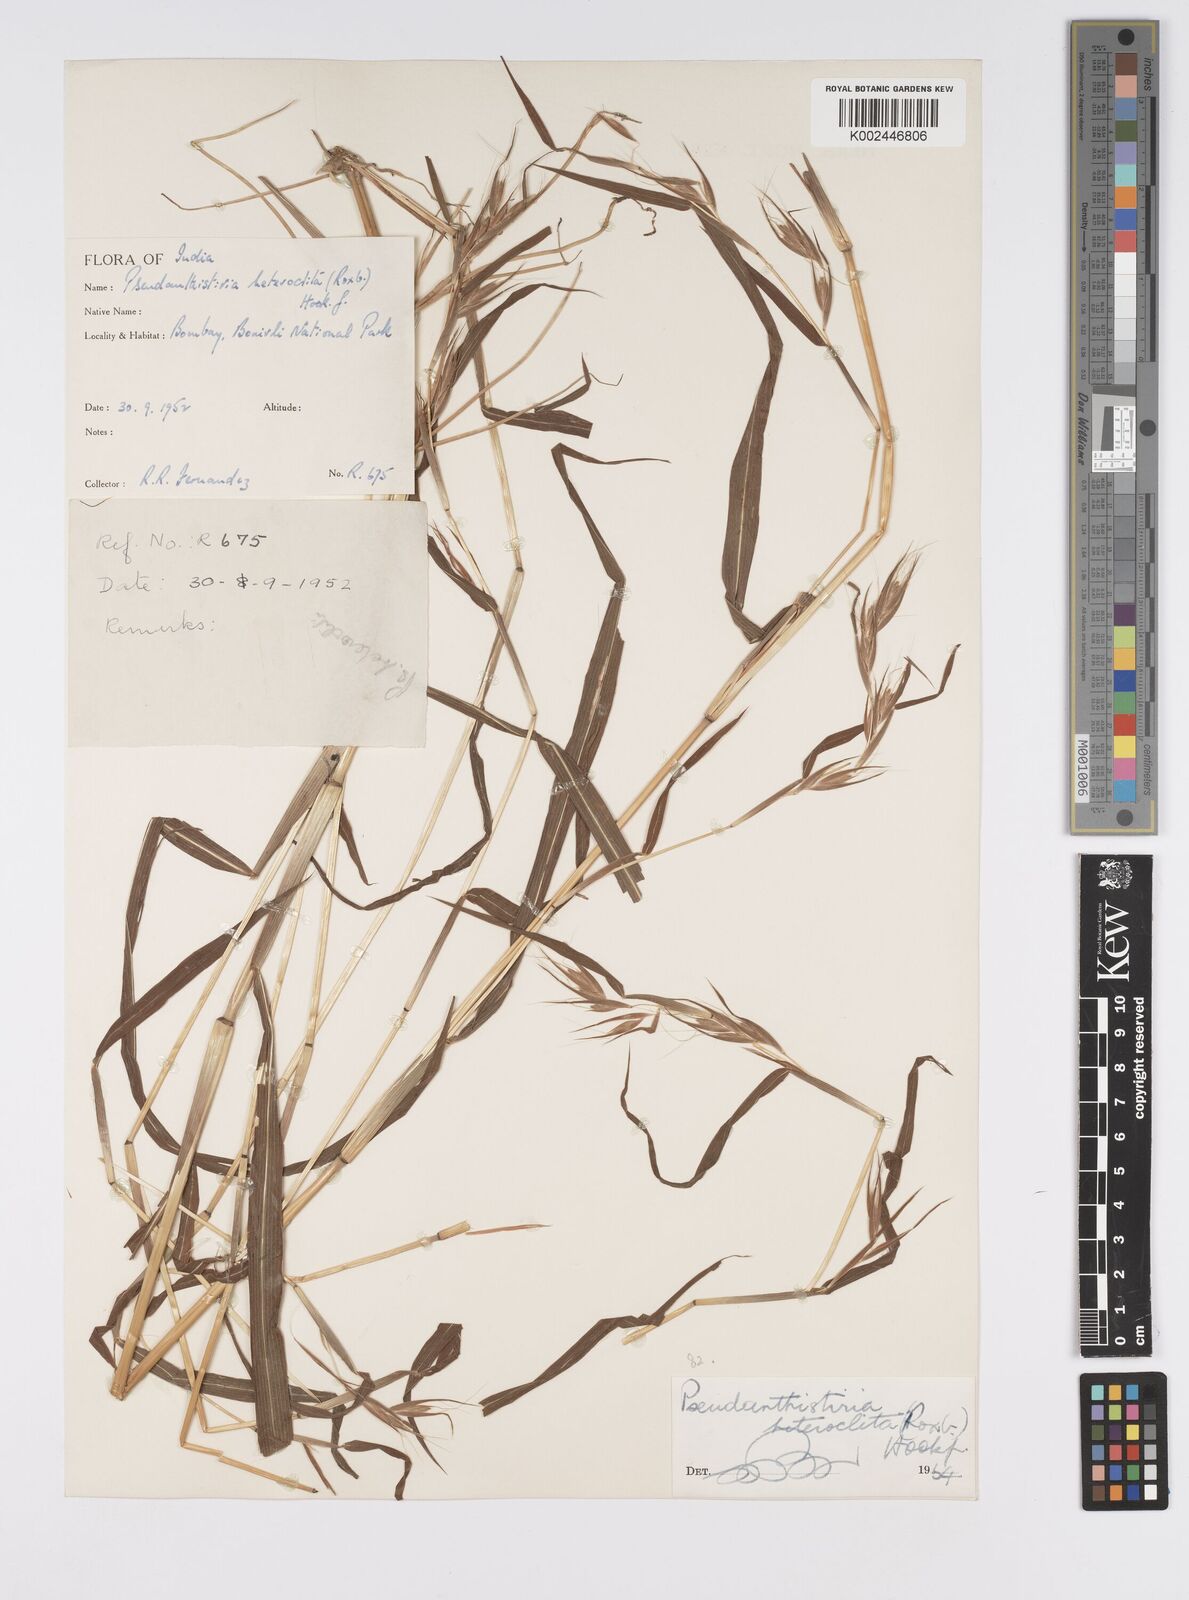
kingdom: Plantae
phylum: Tracheophyta
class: Liliopsida
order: Poales
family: Poaceae
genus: Pseudanthistiria
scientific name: Pseudanthistiria heteroclita
